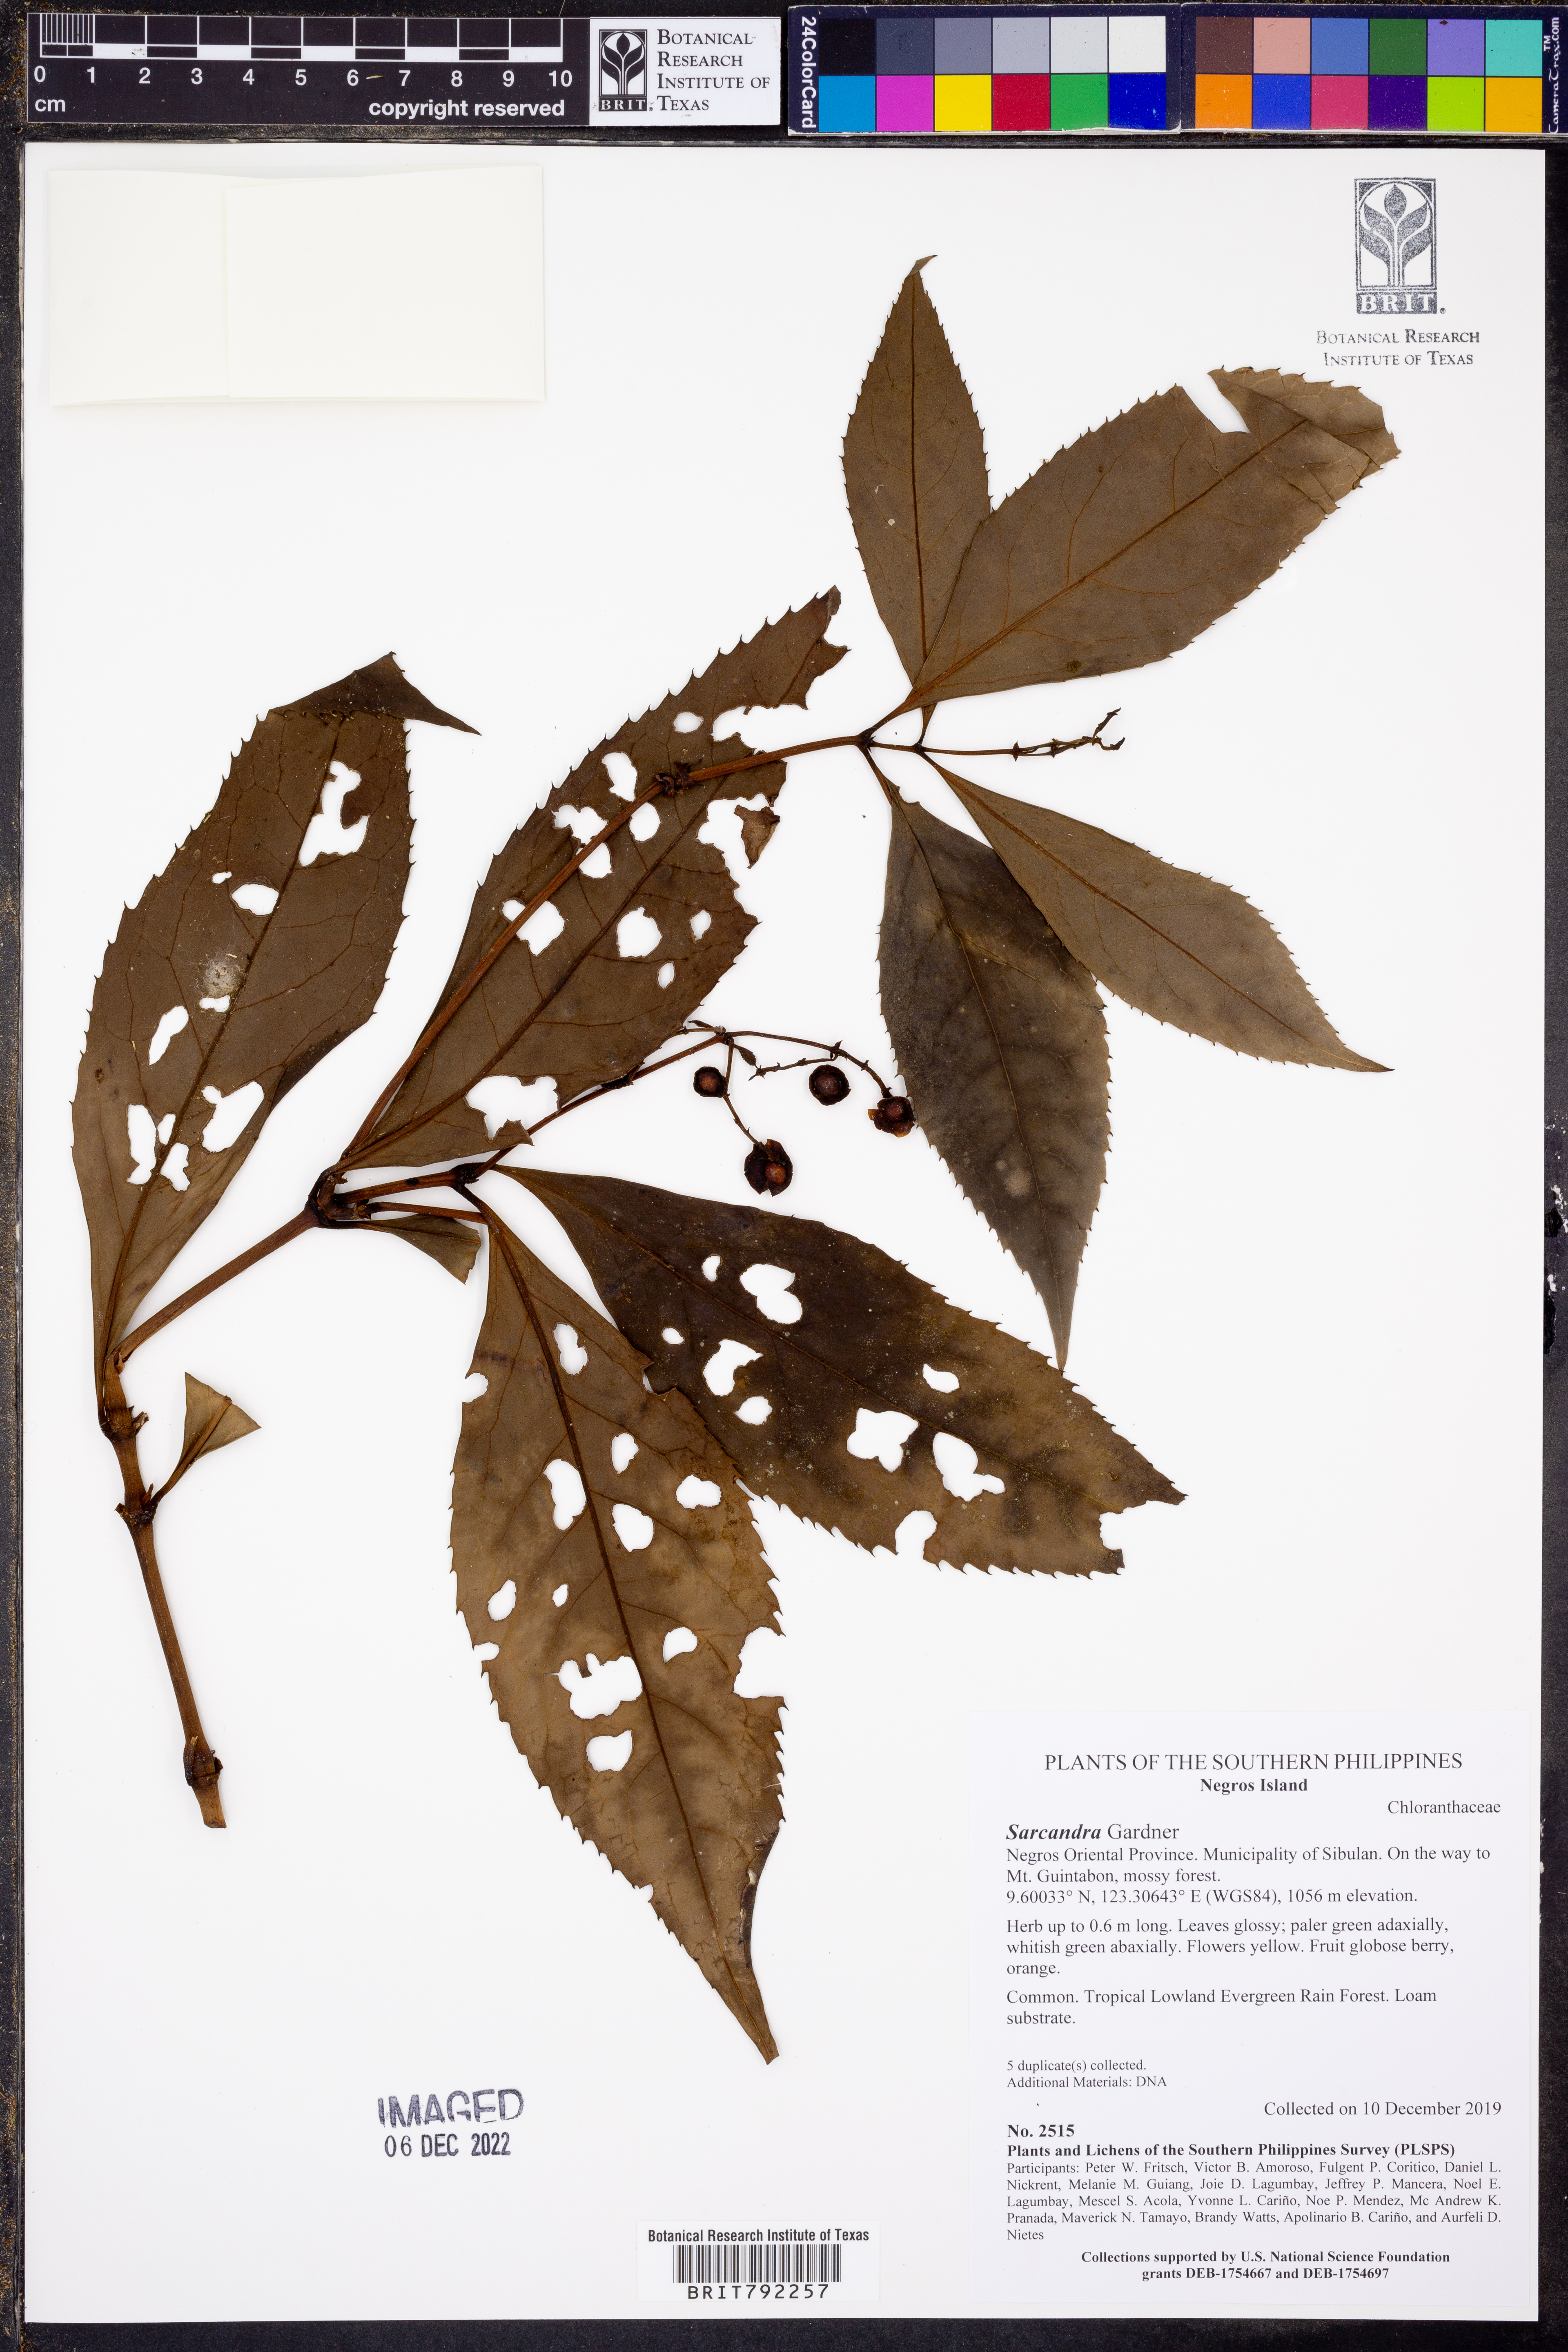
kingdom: Plantae
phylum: Tracheophyta
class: Magnoliopsida
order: Chloranthales
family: Chloranthaceae
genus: Sarcandra
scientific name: Sarcandra
